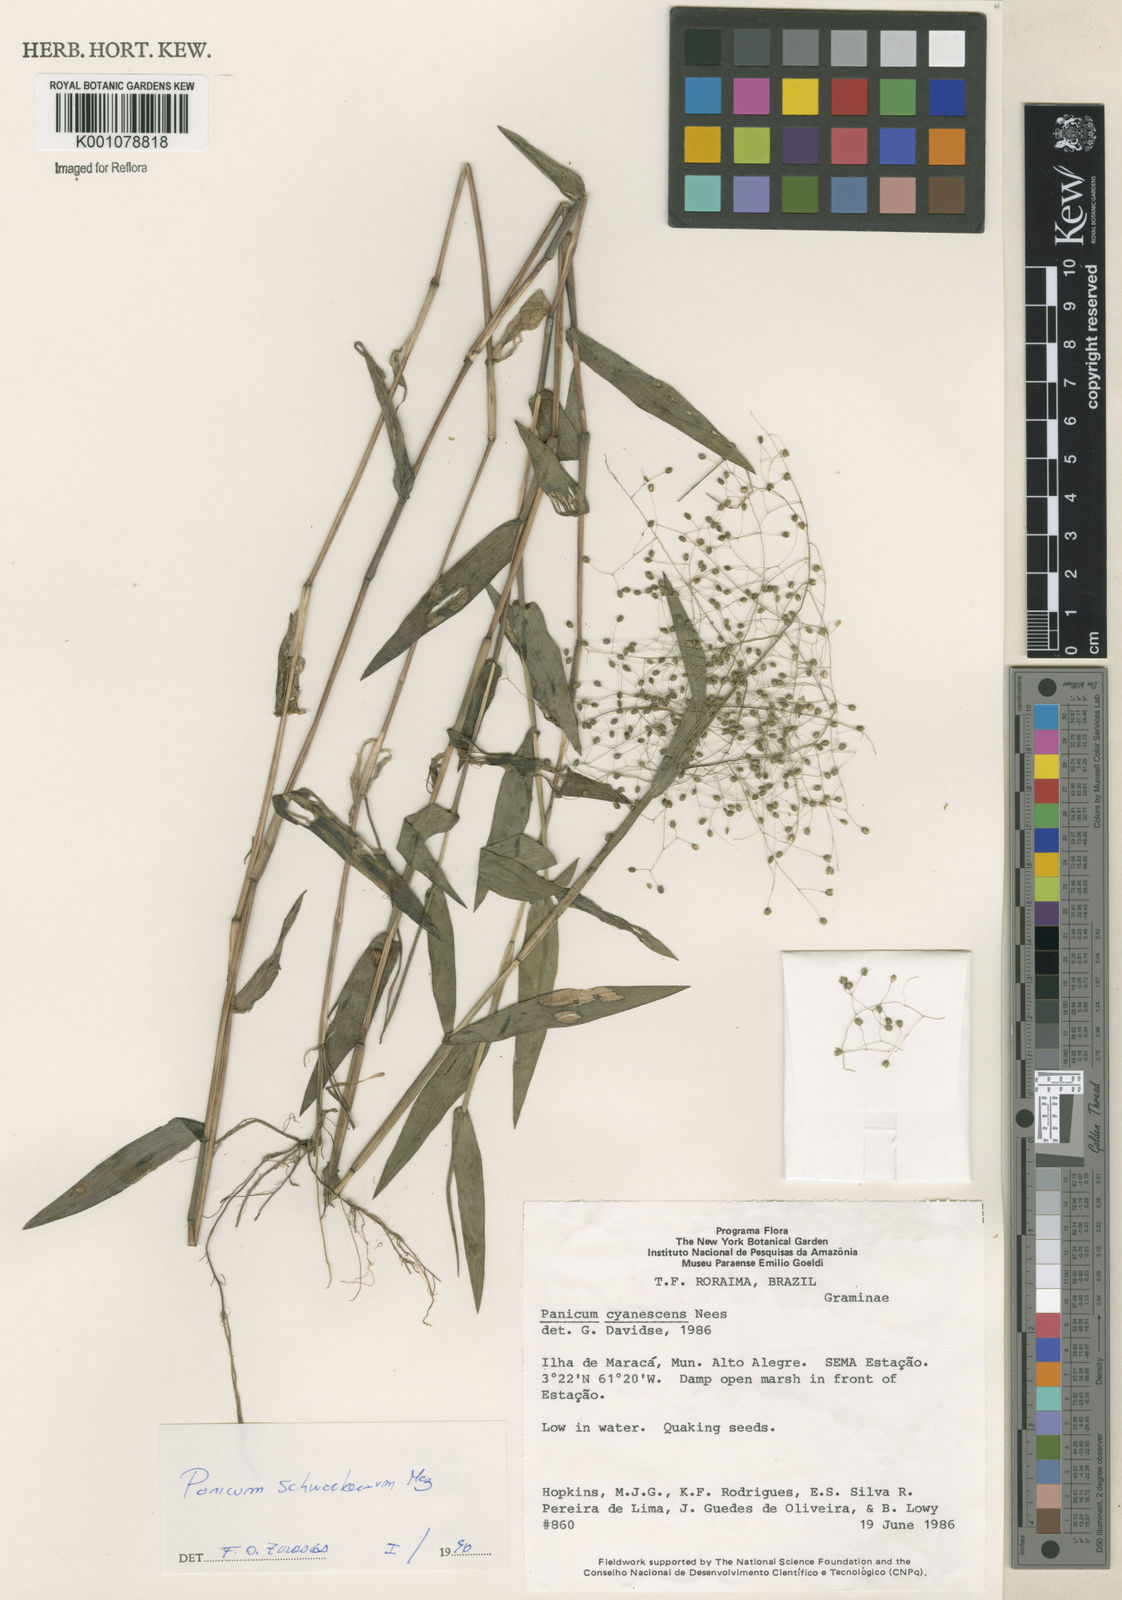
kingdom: Plantae
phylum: Tracheophyta
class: Liliopsida
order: Poales
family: Poaceae
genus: Trichanthecium
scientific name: Trichanthecium schwackeanum
